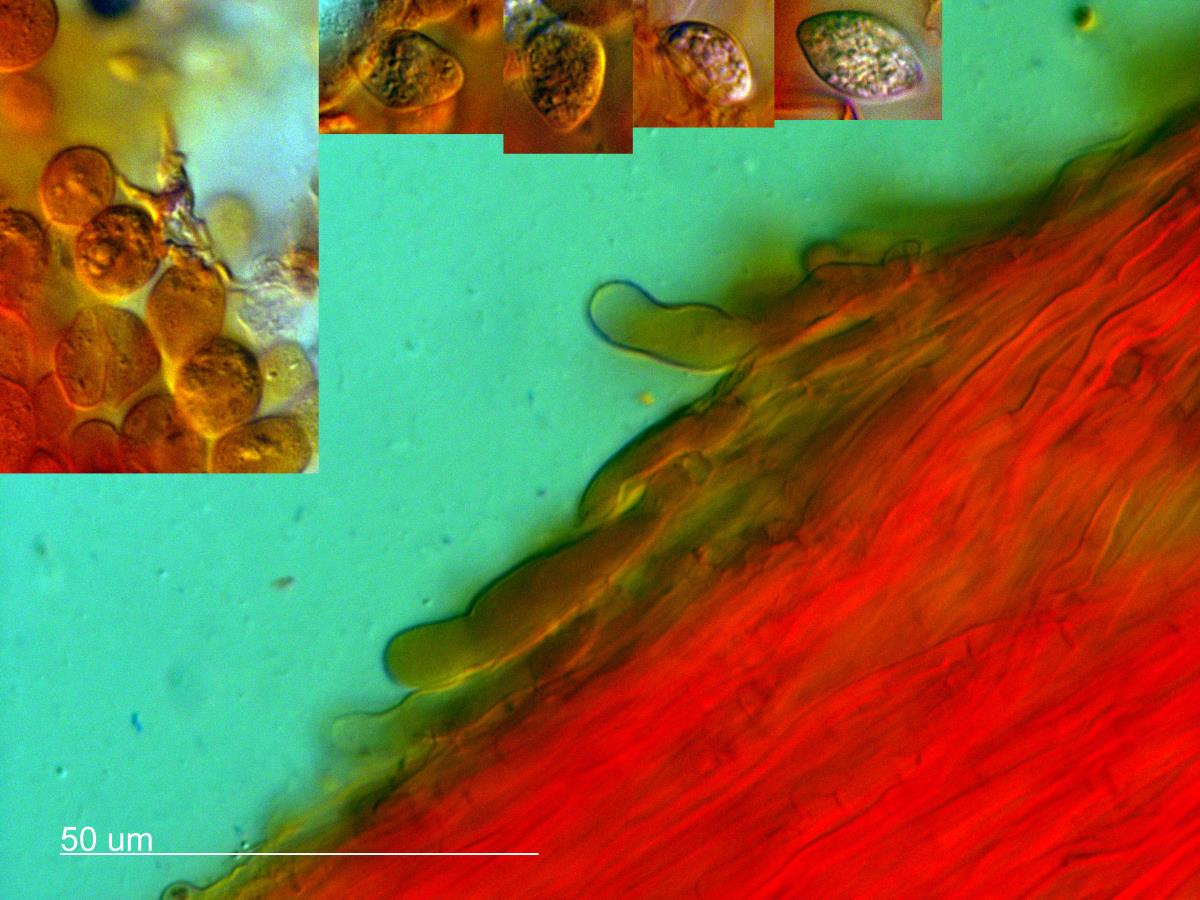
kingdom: Fungi
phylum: Basidiomycota
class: Agaricomycetes
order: Agaricales
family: Pterulaceae
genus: Deflexula
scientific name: Deflexula
